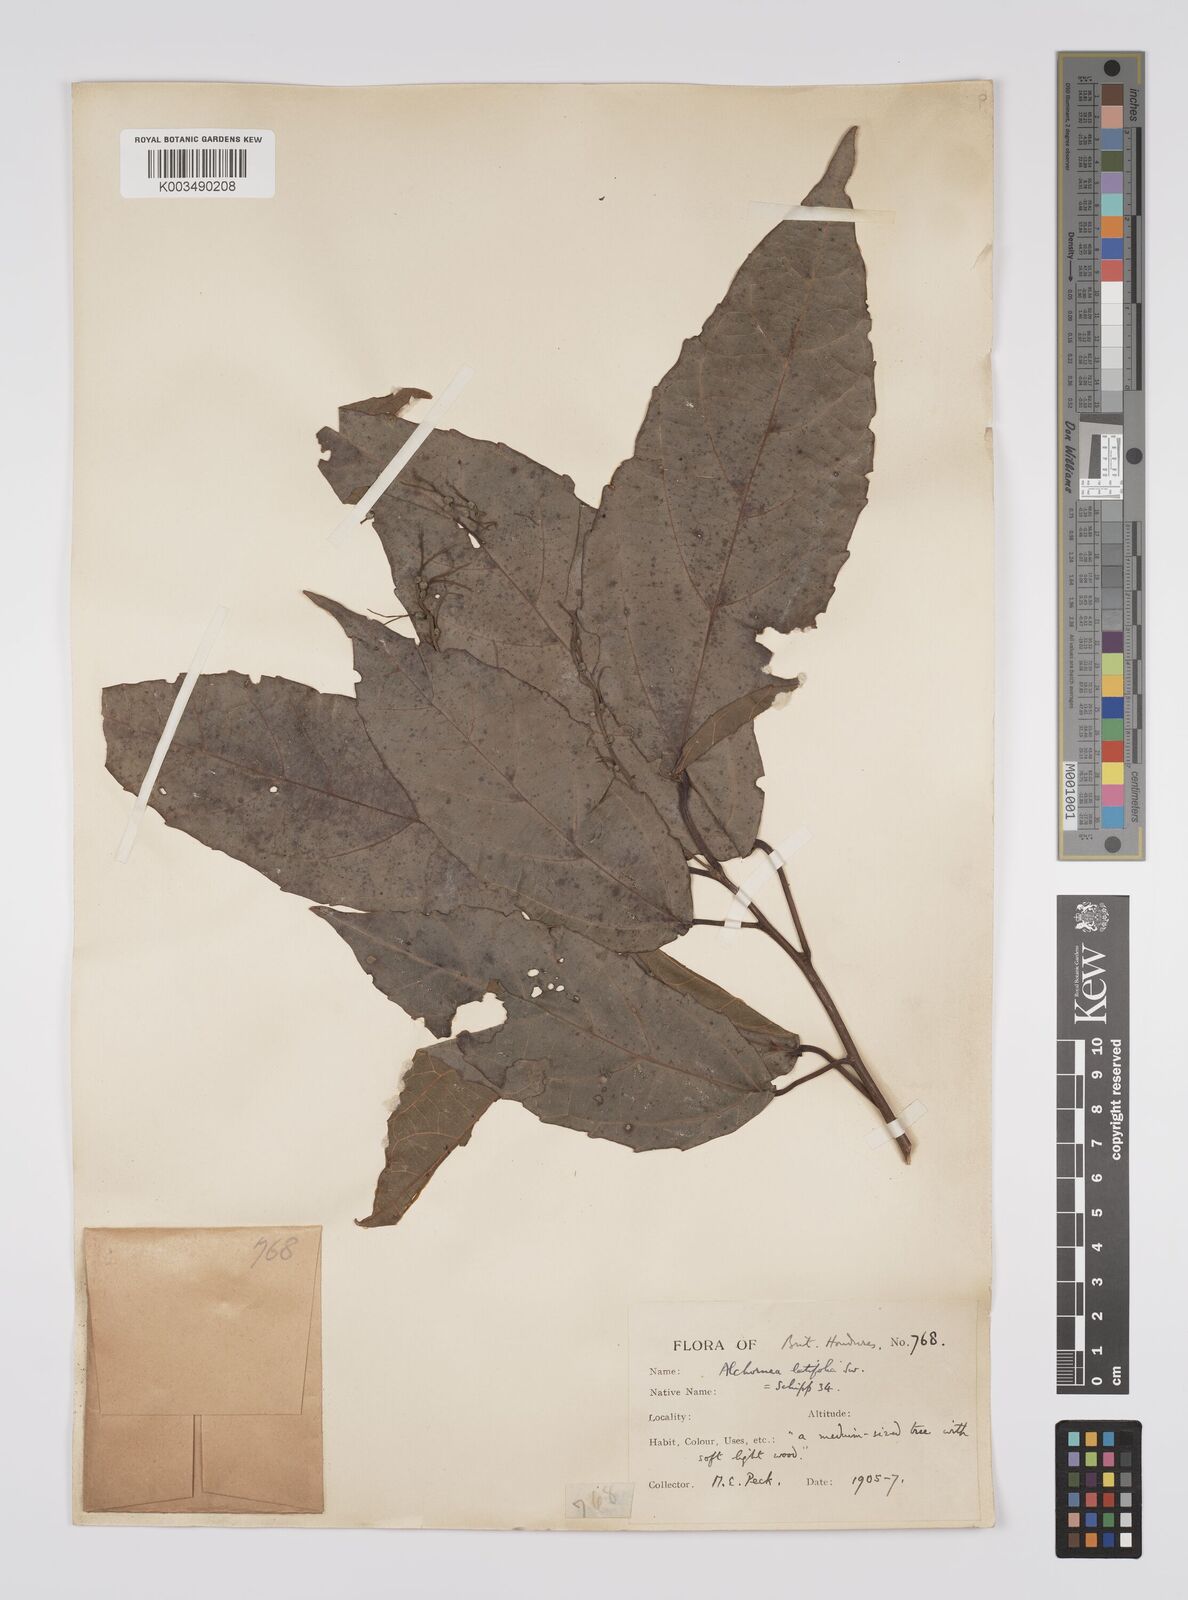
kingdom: Plantae
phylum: Tracheophyta
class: Magnoliopsida
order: Malpighiales
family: Euphorbiaceae
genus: Alchornea
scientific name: Alchornea latifolia
